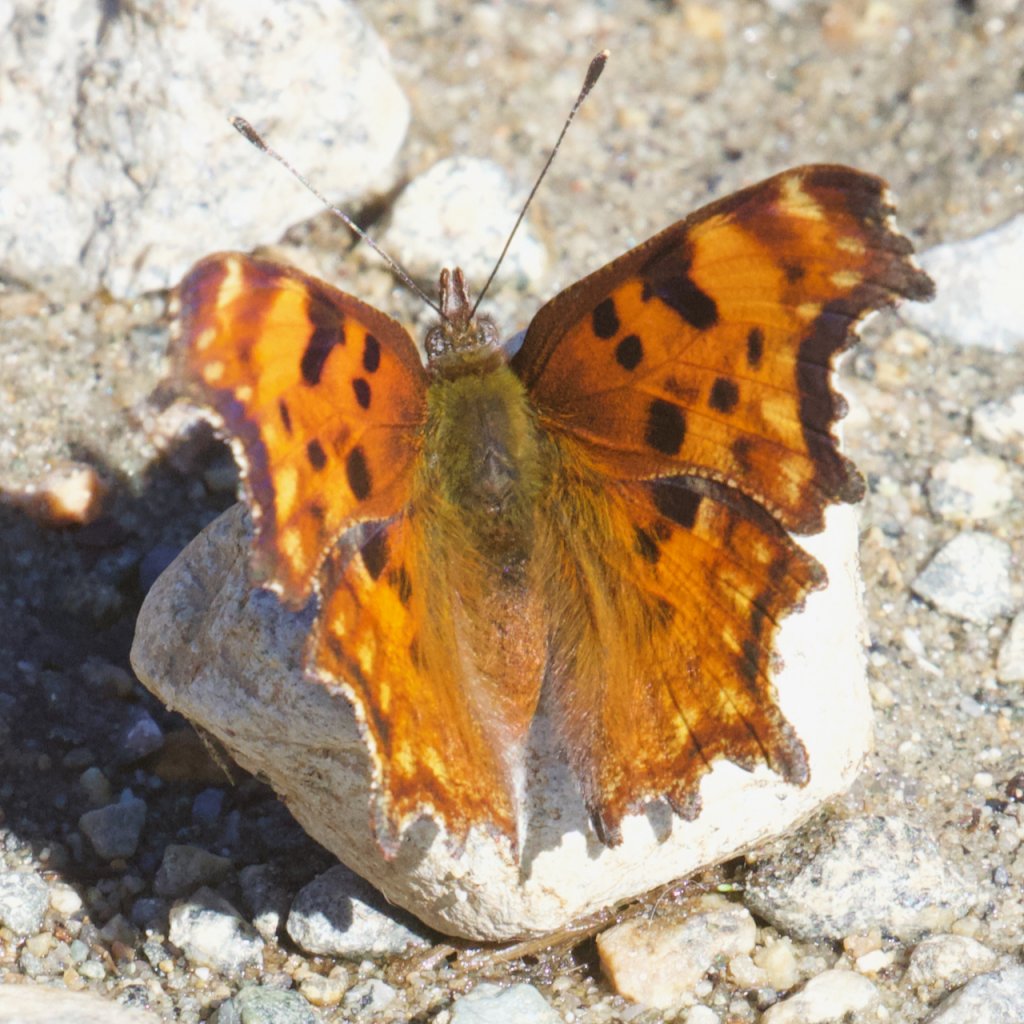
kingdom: Animalia
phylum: Arthropoda
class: Insecta
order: Lepidoptera
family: Nymphalidae
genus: Polygonia
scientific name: Polygonia satyrus
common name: Satyr Comma
